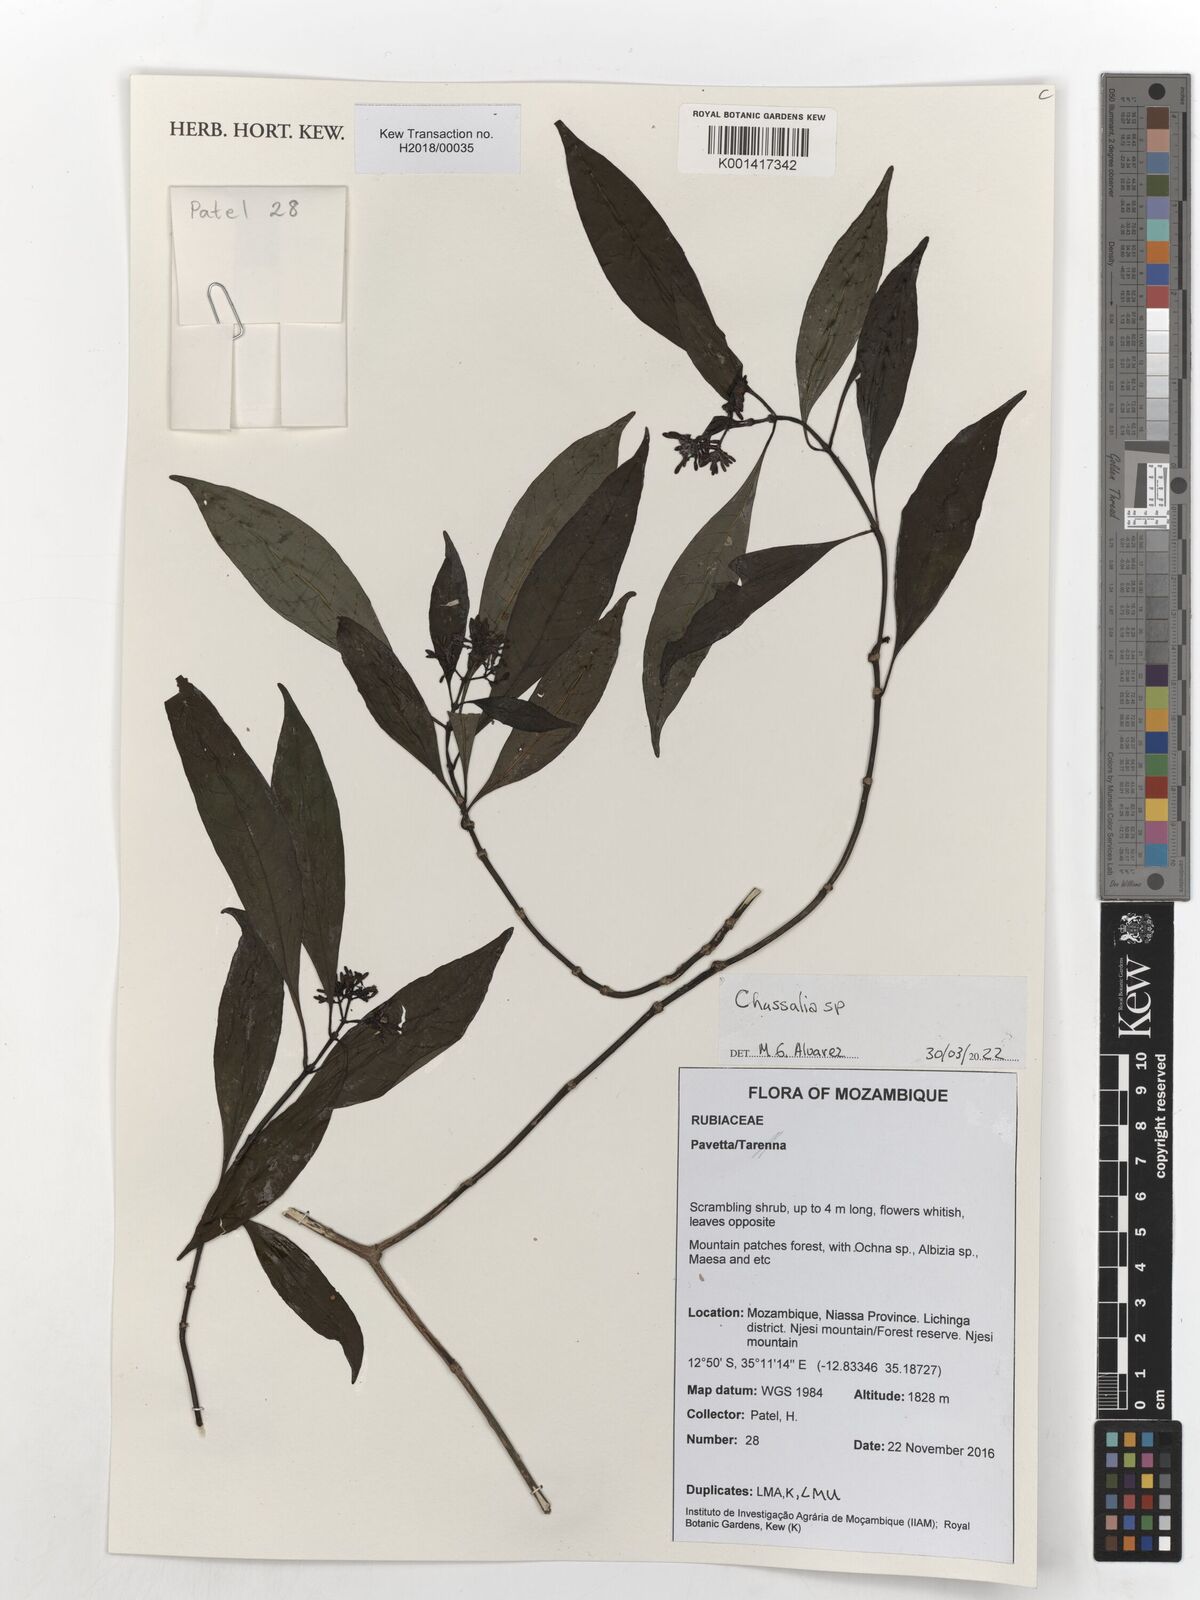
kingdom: Plantae
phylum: Tracheophyta
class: Magnoliopsida
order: Gentianales
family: Rubiaceae
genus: Chassalia
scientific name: Chassalia
